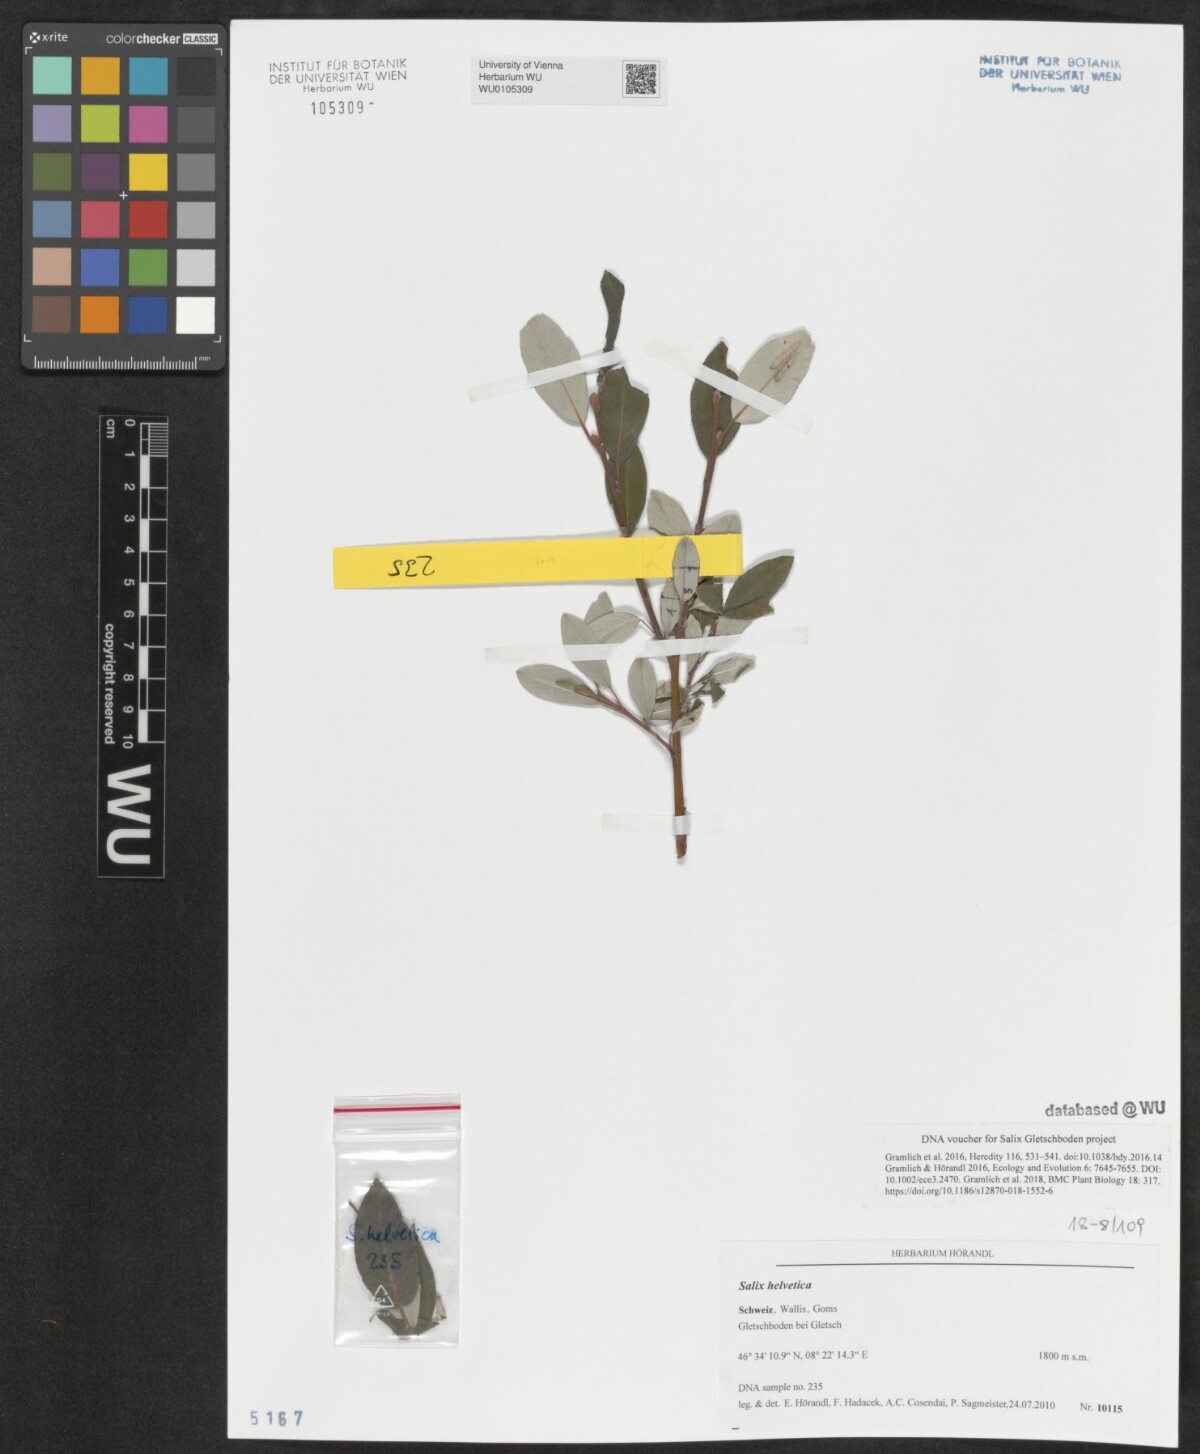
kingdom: Plantae
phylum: Tracheophyta
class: Magnoliopsida
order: Malpighiales
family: Salicaceae
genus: Salix
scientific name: Salix helvetica
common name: Swiss willow
